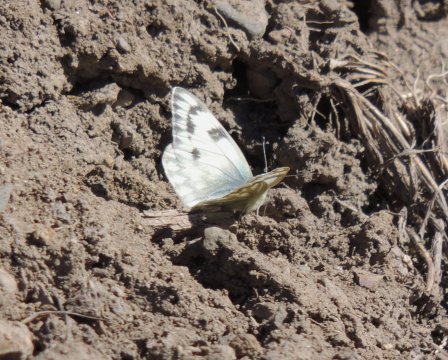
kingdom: Animalia
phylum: Arthropoda
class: Insecta
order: Lepidoptera
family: Pieridae
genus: Pontia
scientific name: Pontia occidentalis
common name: Western White
